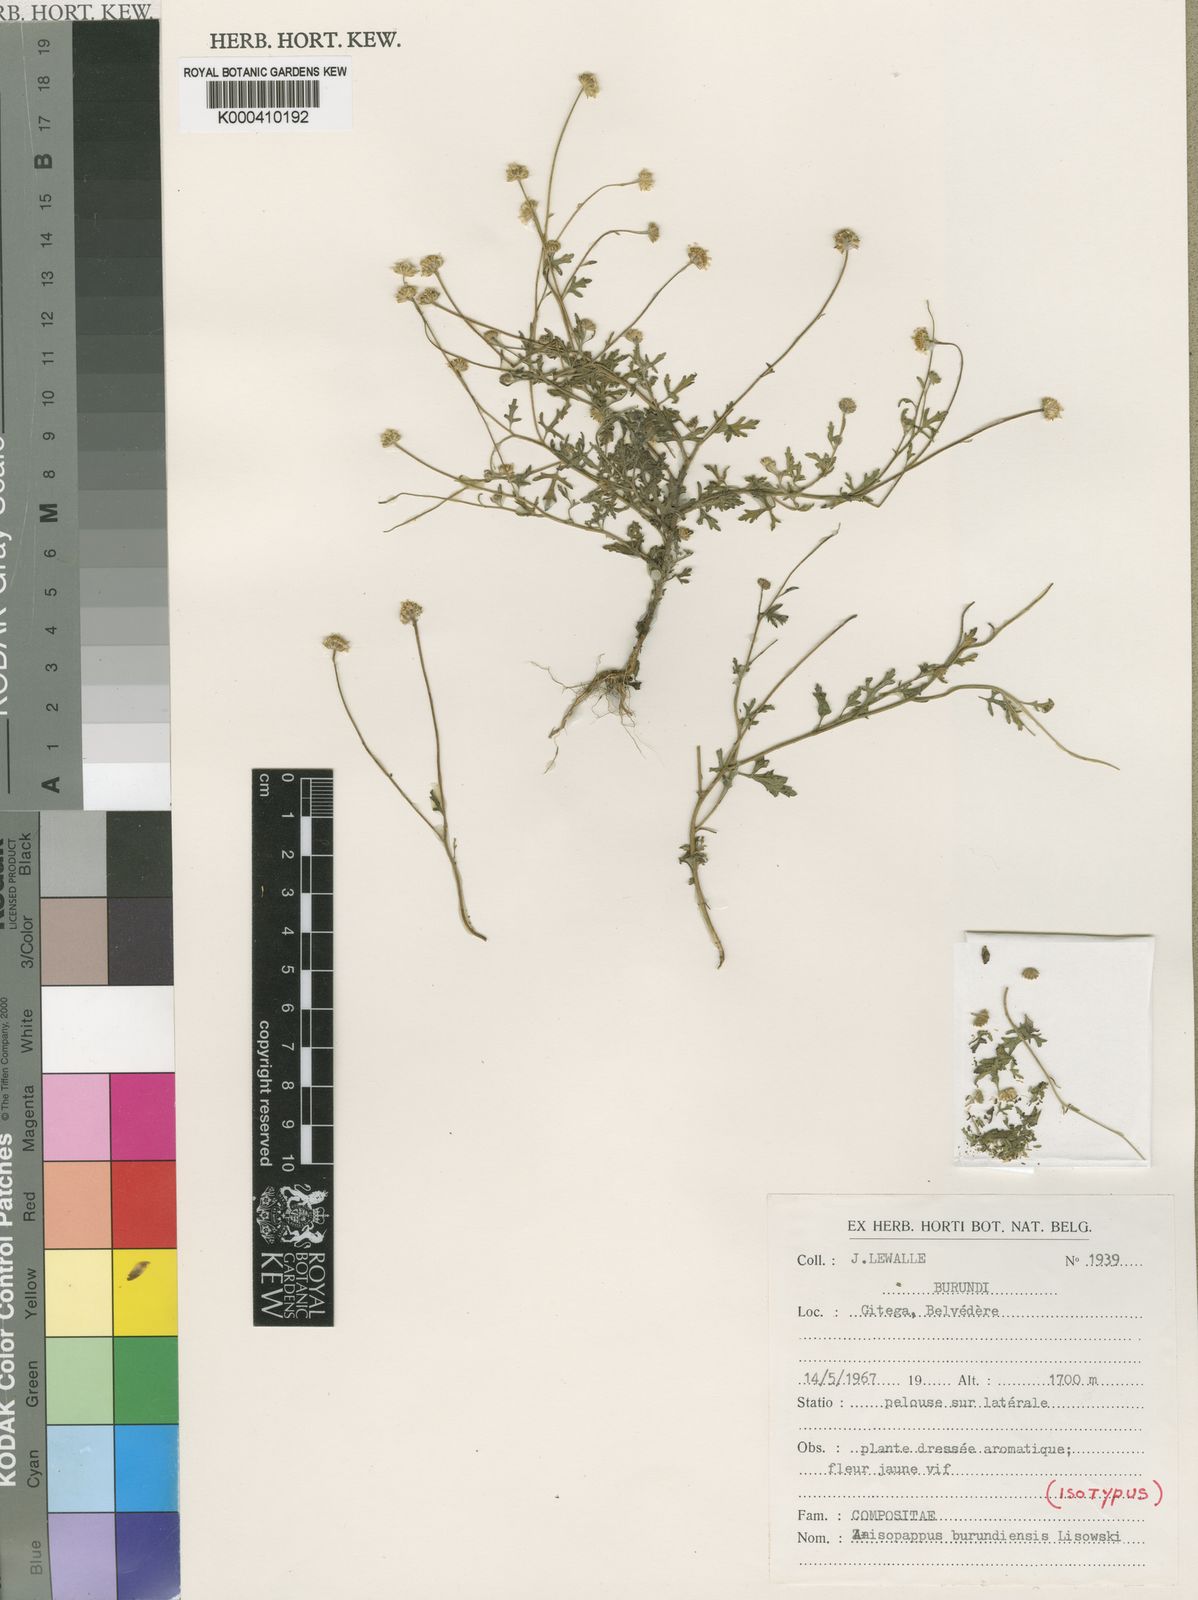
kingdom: Plantae
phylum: Tracheophyta
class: Magnoliopsida
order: Asterales
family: Asteraceae
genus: Anisopappus
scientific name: Anisopappus abercornensis
